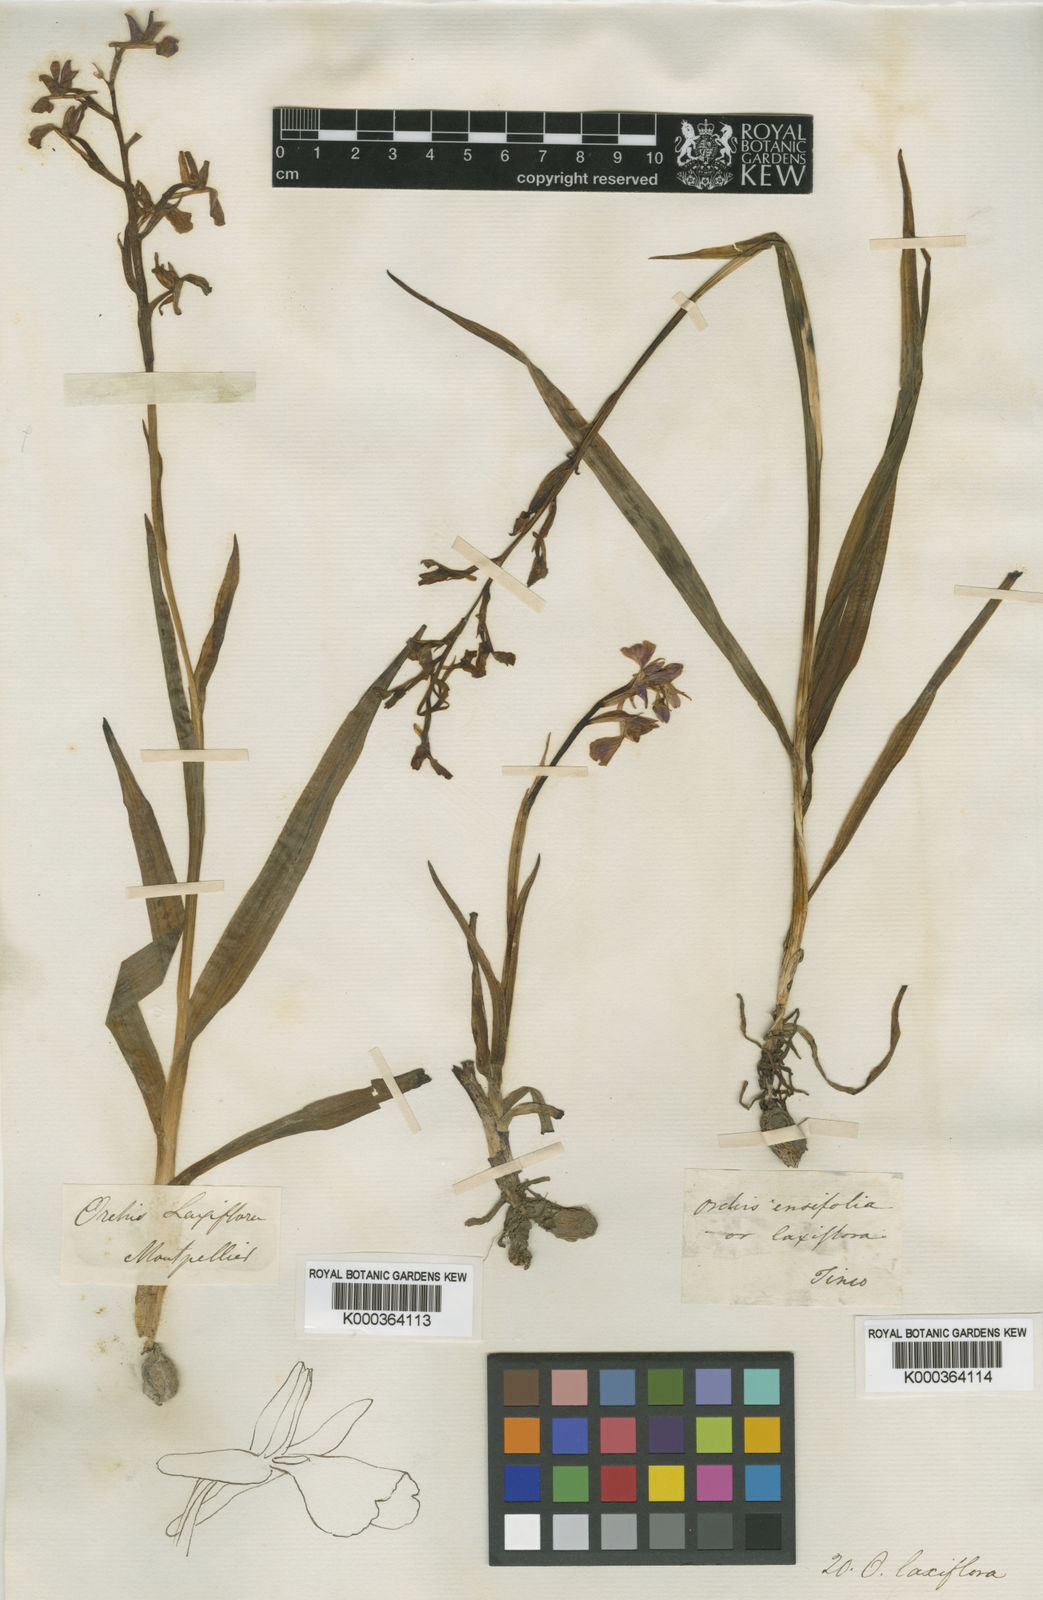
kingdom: Plantae
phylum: Tracheophyta
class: Liliopsida
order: Asparagales
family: Orchidaceae
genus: Anacamptis
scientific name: Anacamptis laxiflora
